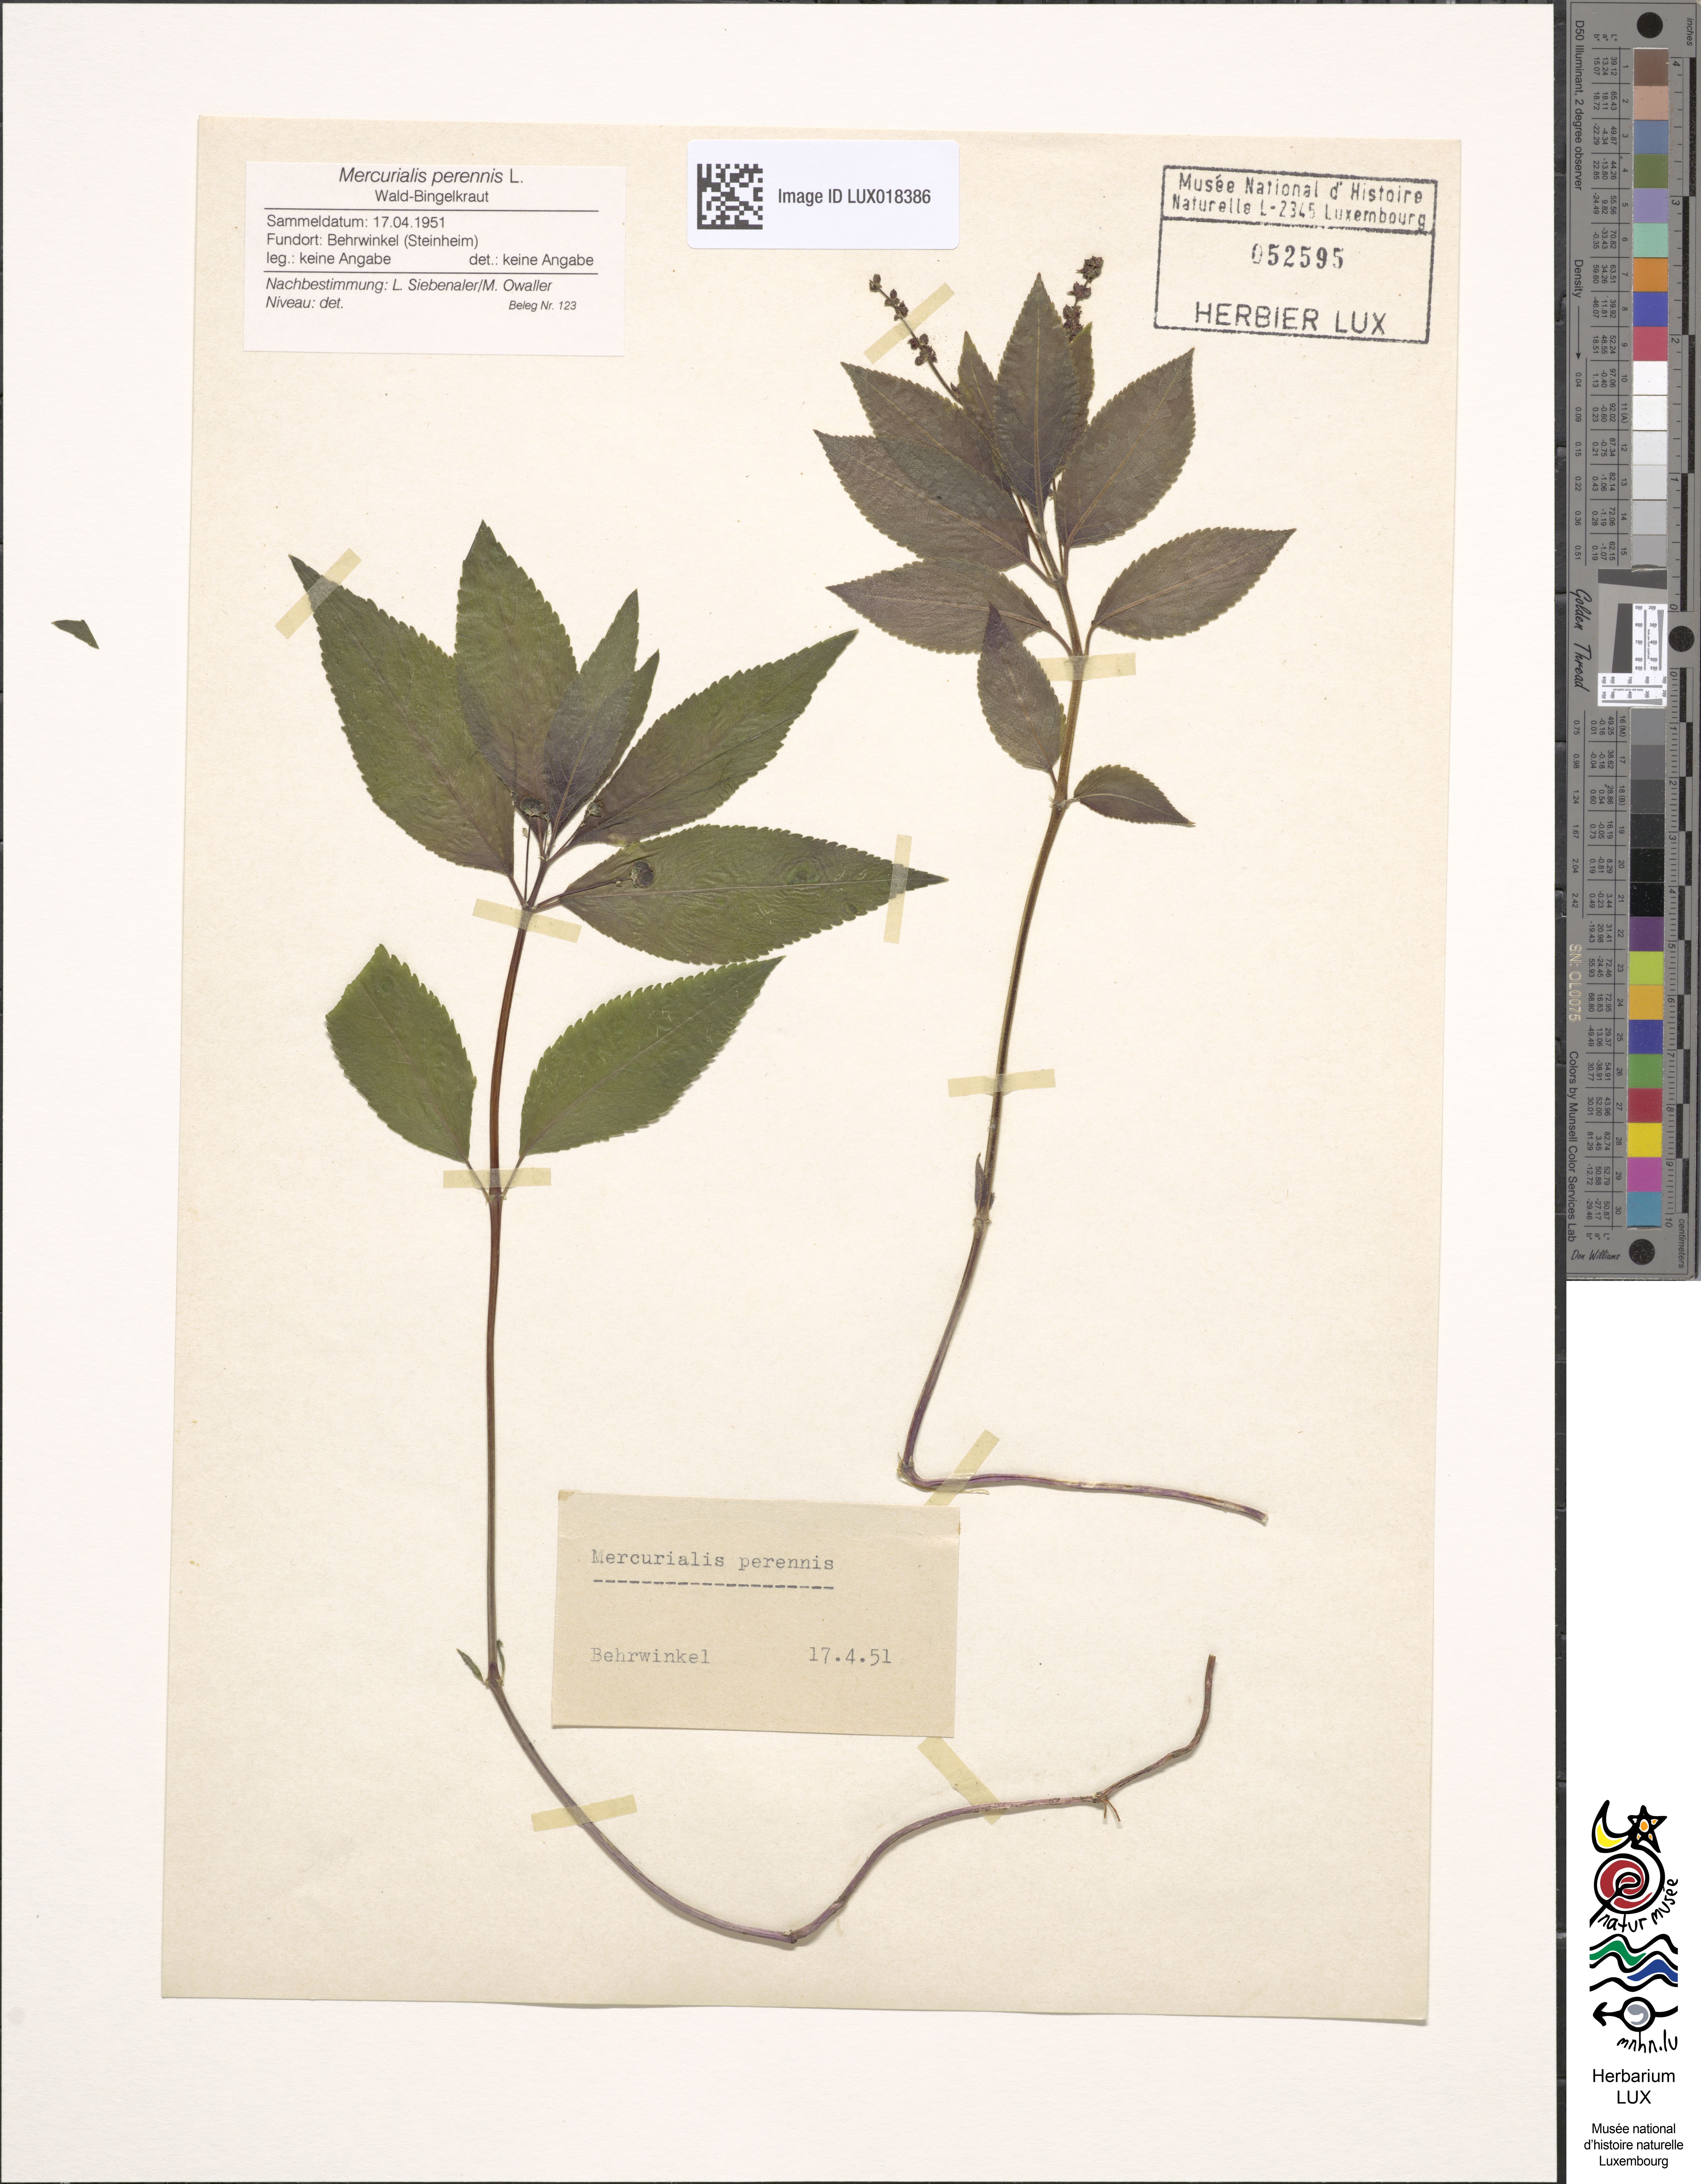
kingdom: Plantae
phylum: Tracheophyta
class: Magnoliopsida
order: Malpighiales
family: Euphorbiaceae
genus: Mercurialis
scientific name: Mercurialis perennis
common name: Dog mercury
